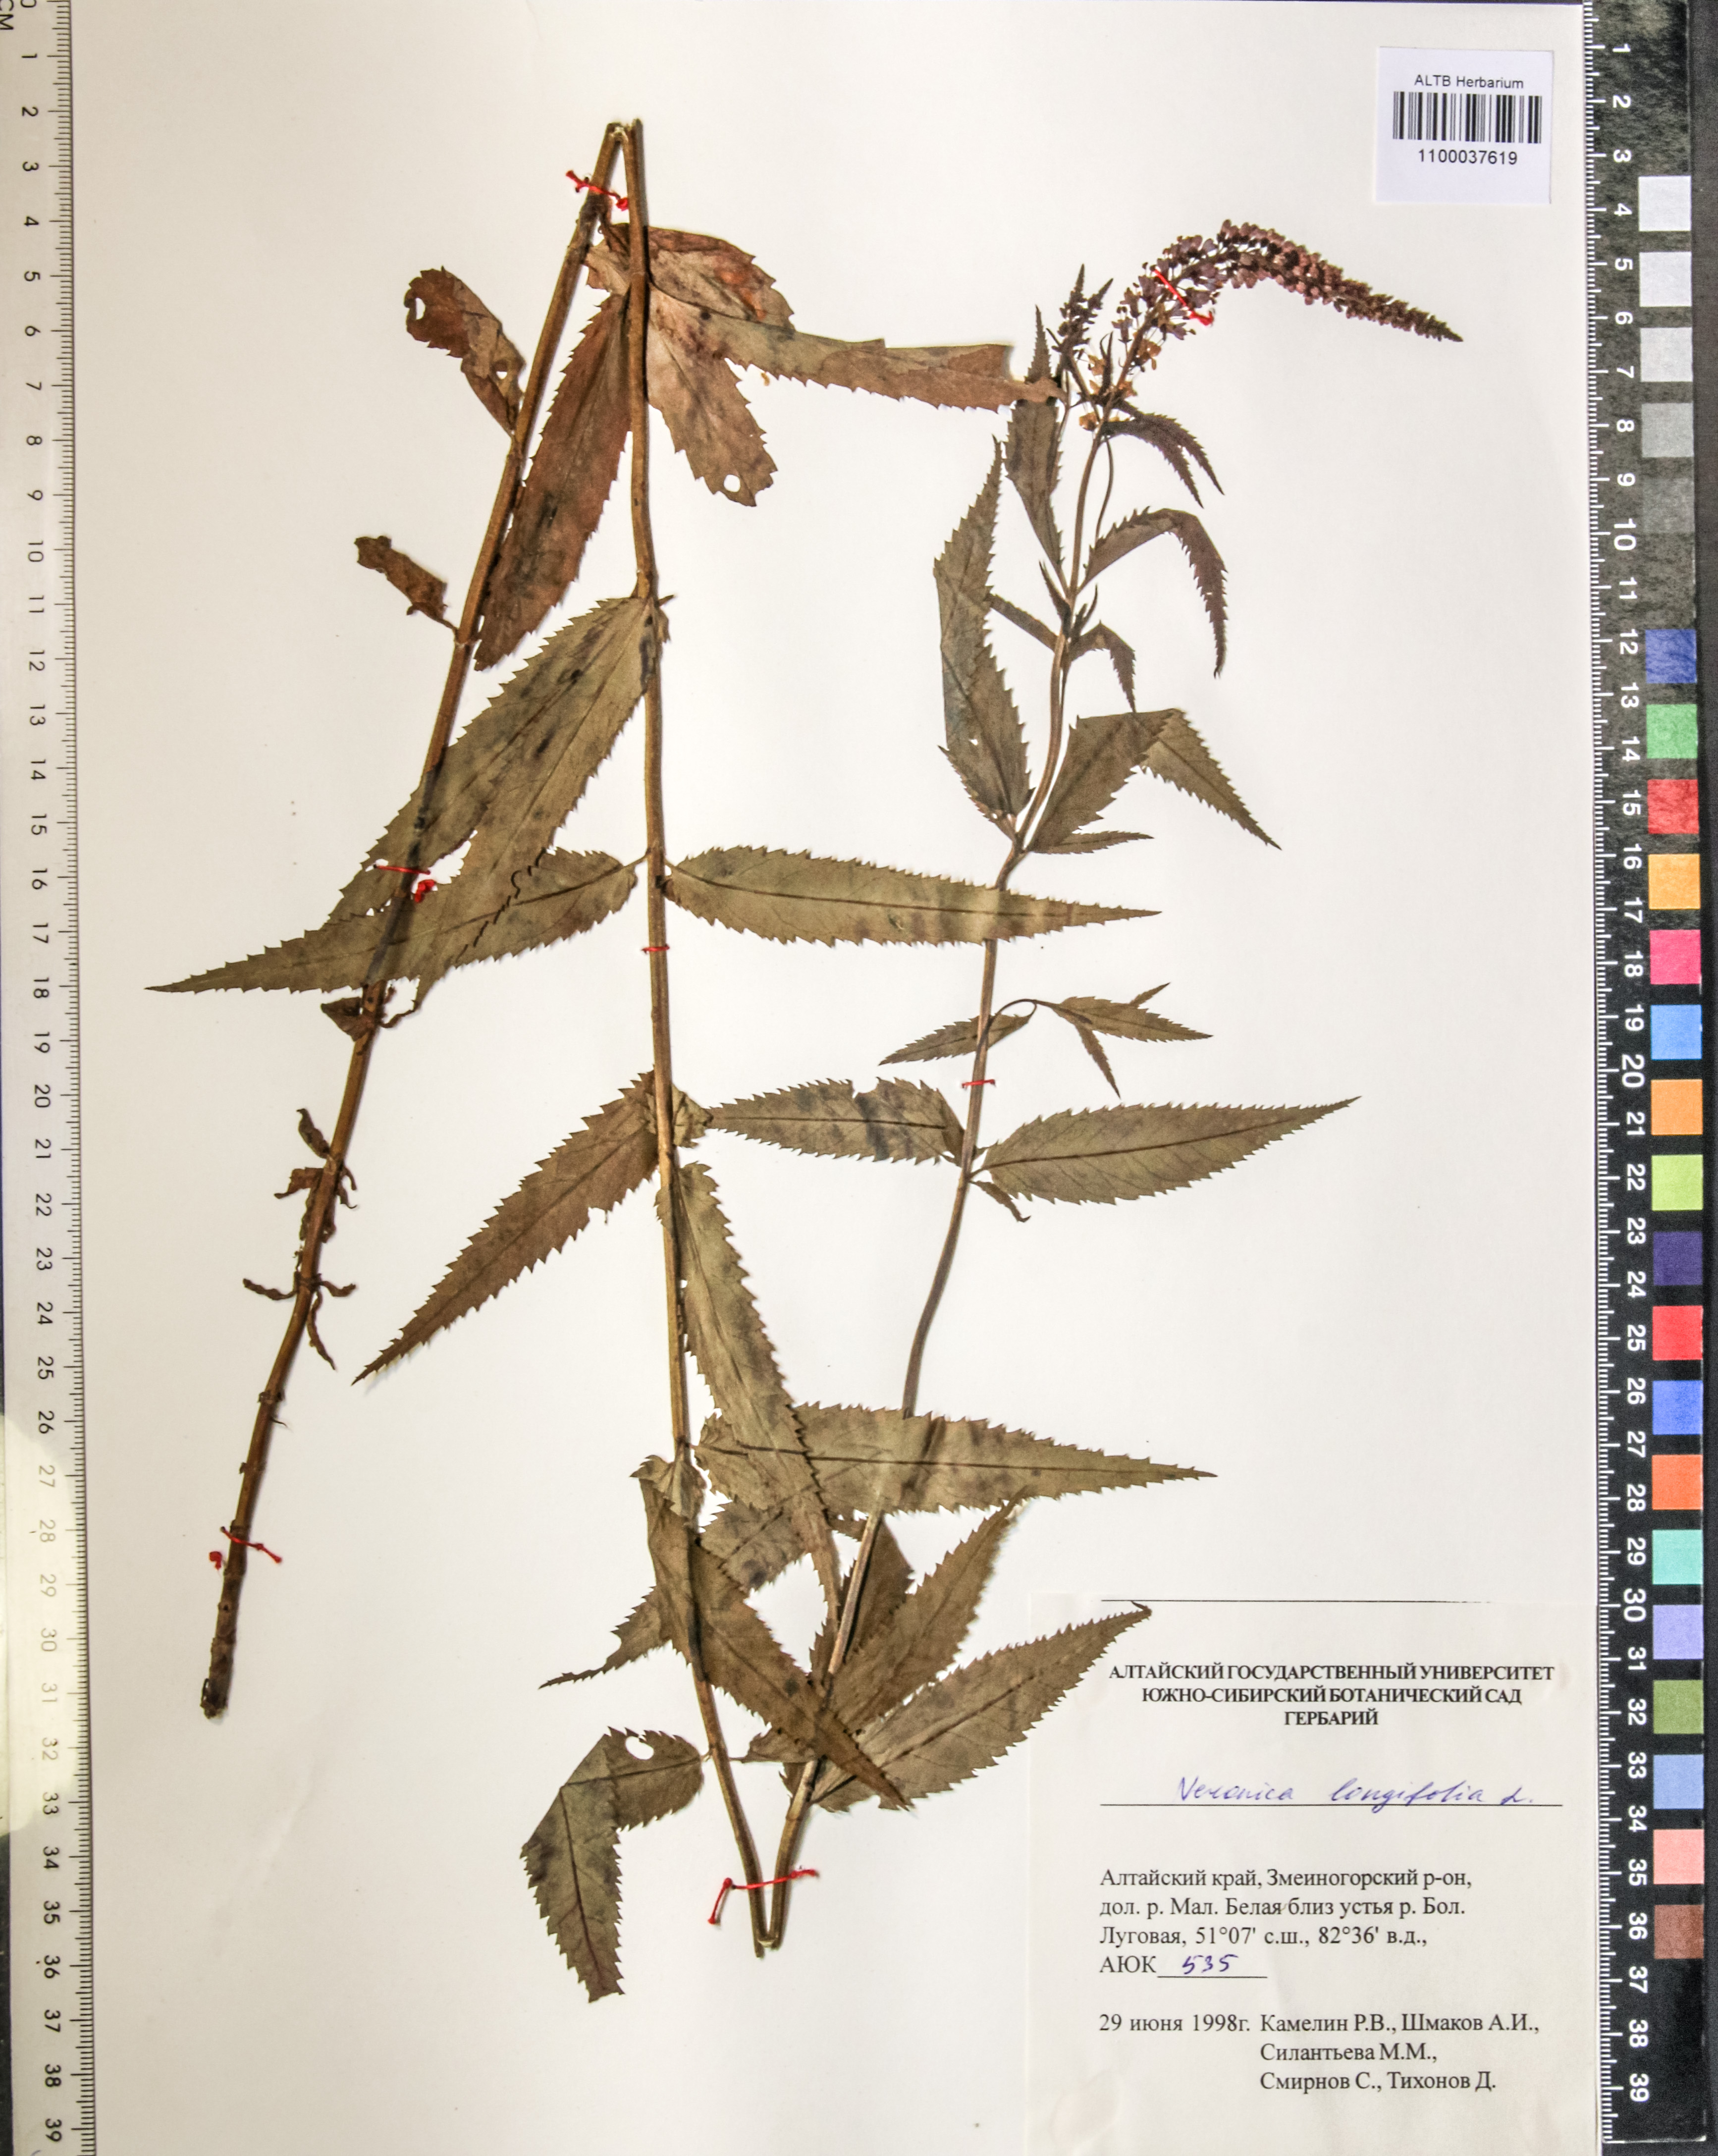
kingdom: Plantae
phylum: Tracheophyta
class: Magnoliopsida
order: Lamiales
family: Plantaginaceae
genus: Veronica
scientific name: Veronica longifolia
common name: Garden speedwell
